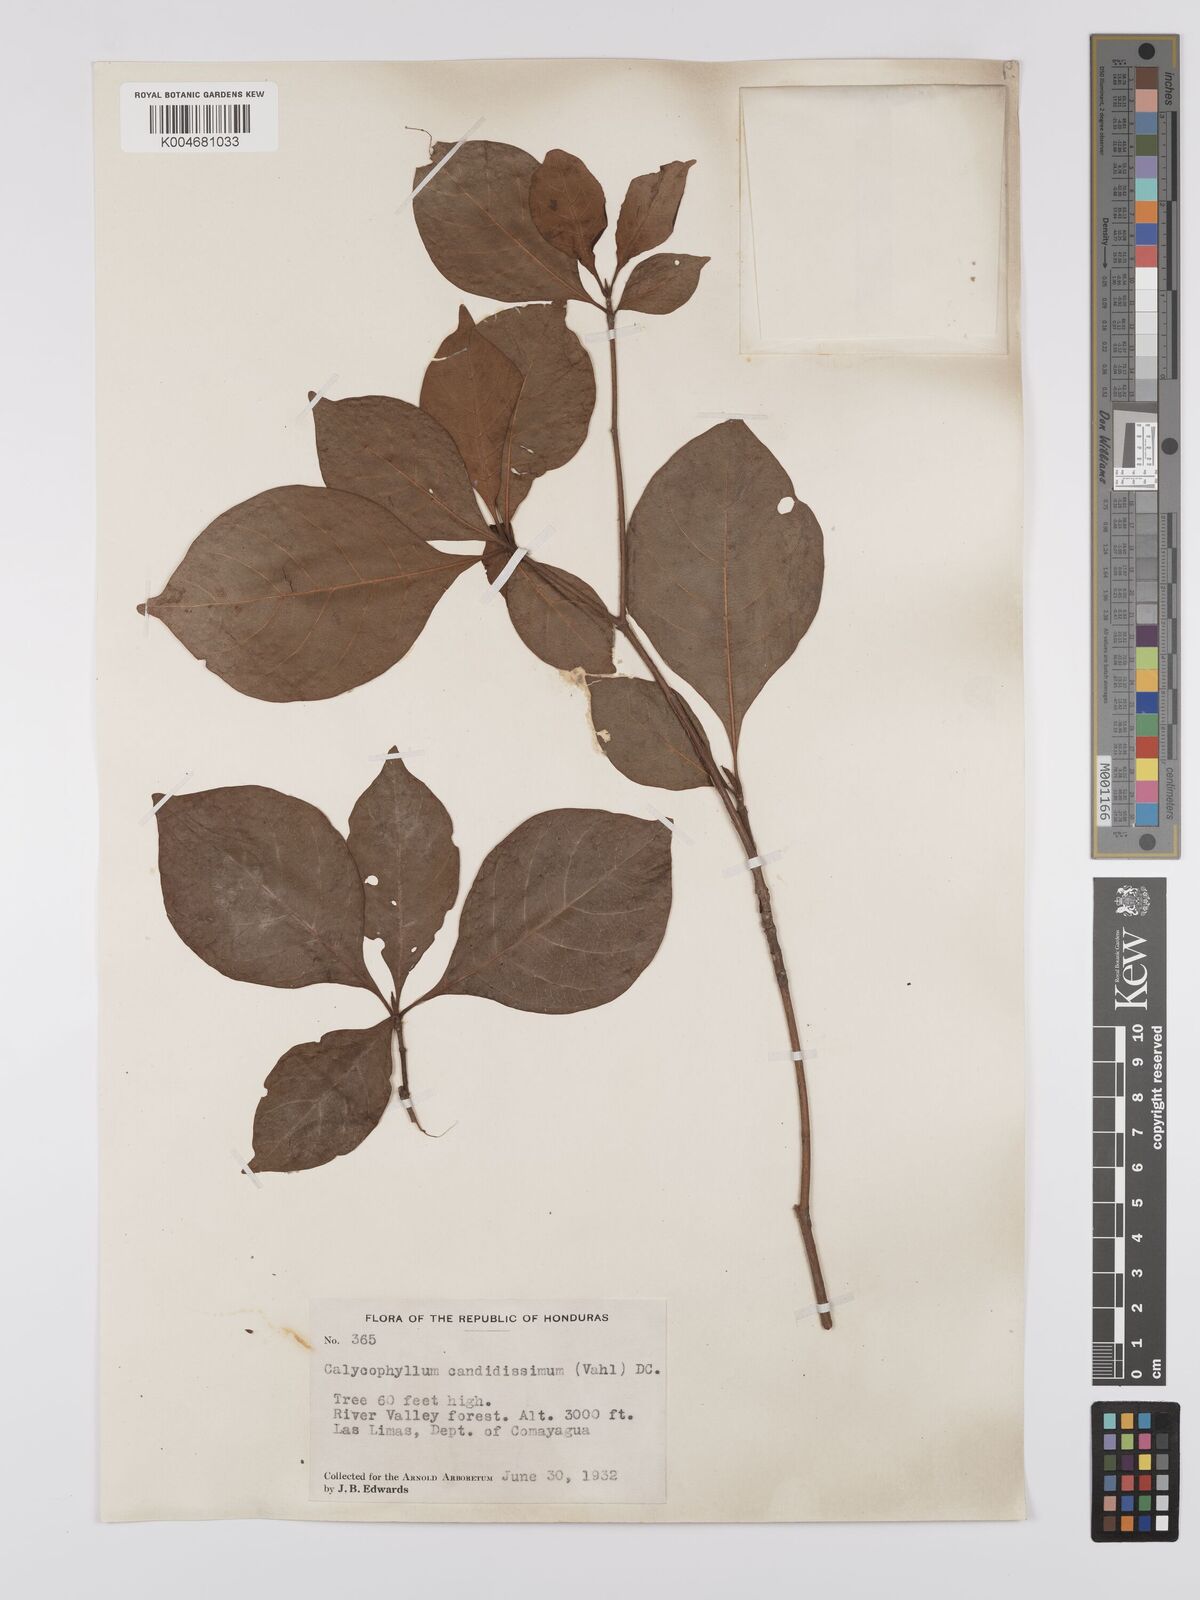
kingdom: Plantae
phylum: Tracheophyta
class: Magnoliopsida
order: Gentianales
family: Rubiaceae
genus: Calycophyllum
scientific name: Calycophyllum candidissimum
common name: Dagame
